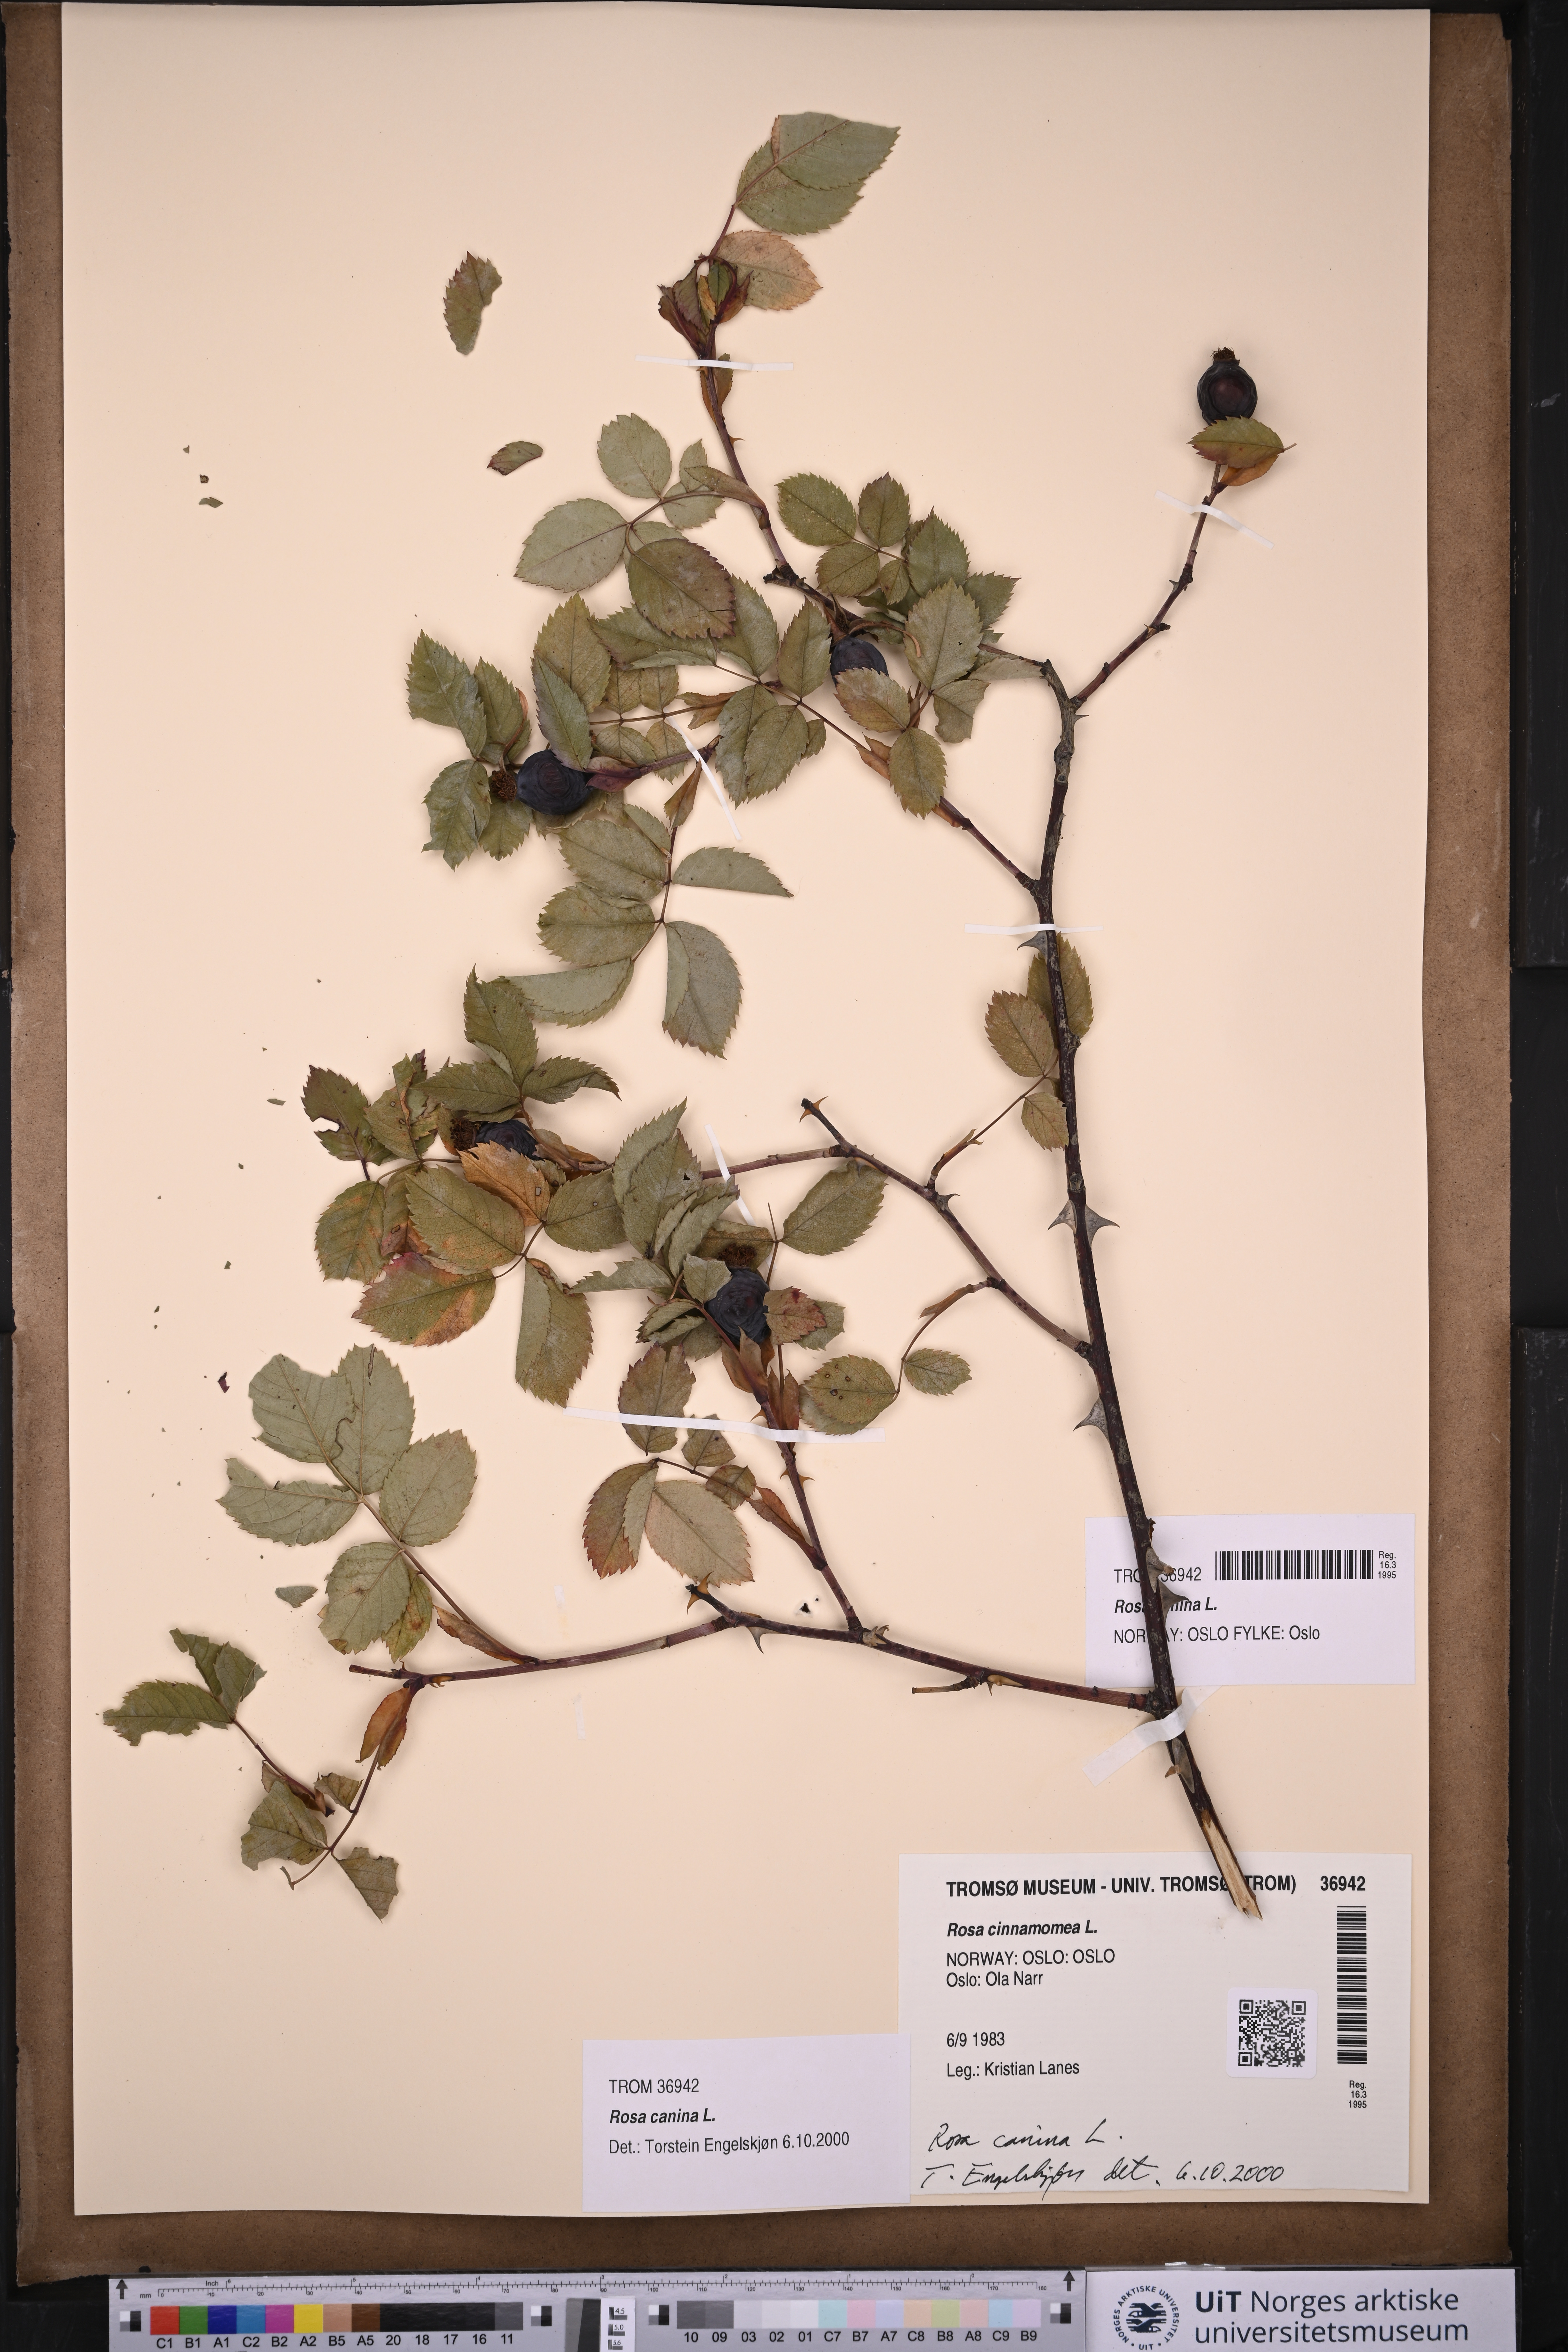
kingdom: Plantae
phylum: Tracheophyta
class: Magnoliopsida
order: Rosales
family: Rosaceae
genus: Rosa
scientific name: Rosa canina
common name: Dog rose
